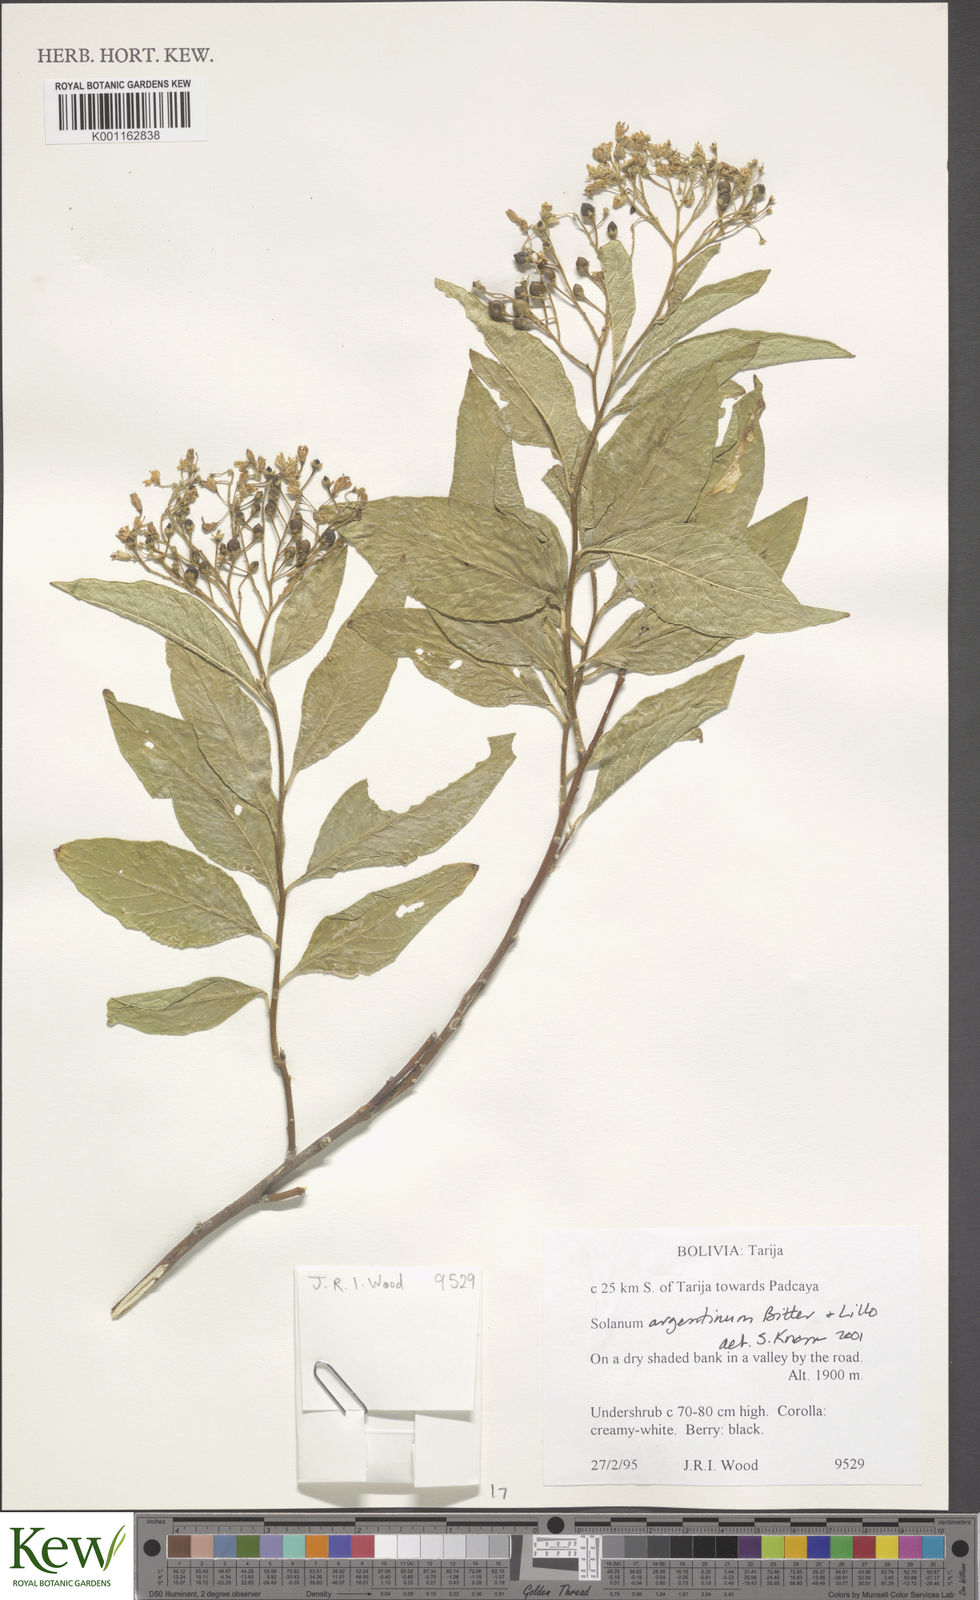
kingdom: Plantae
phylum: Tracheophyta
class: Magnoliopsida
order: Solanales
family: Solanaceae
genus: Solanum
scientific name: Solanum argentinum
